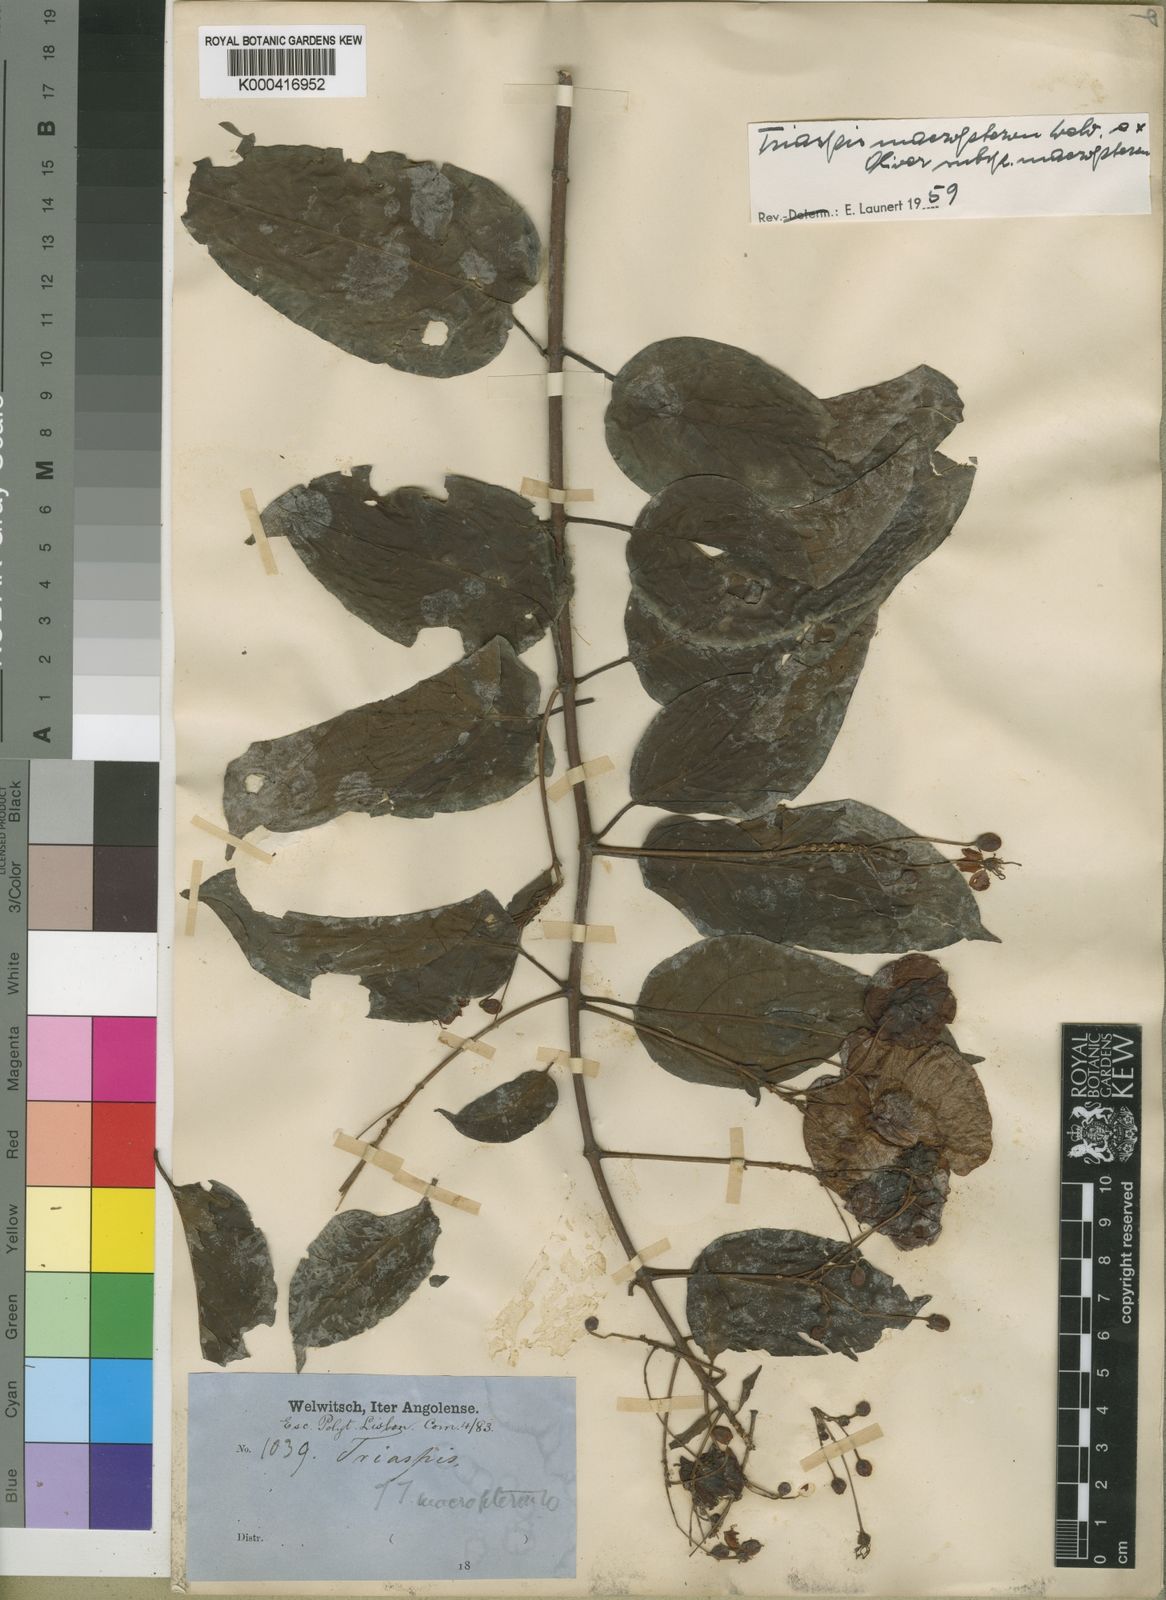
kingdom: Plantae
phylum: Tracheophyta
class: Magnoliopsida
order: Malpighiales
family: Malpighiaceae
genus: Triaspis
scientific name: Triaspis macropteron
